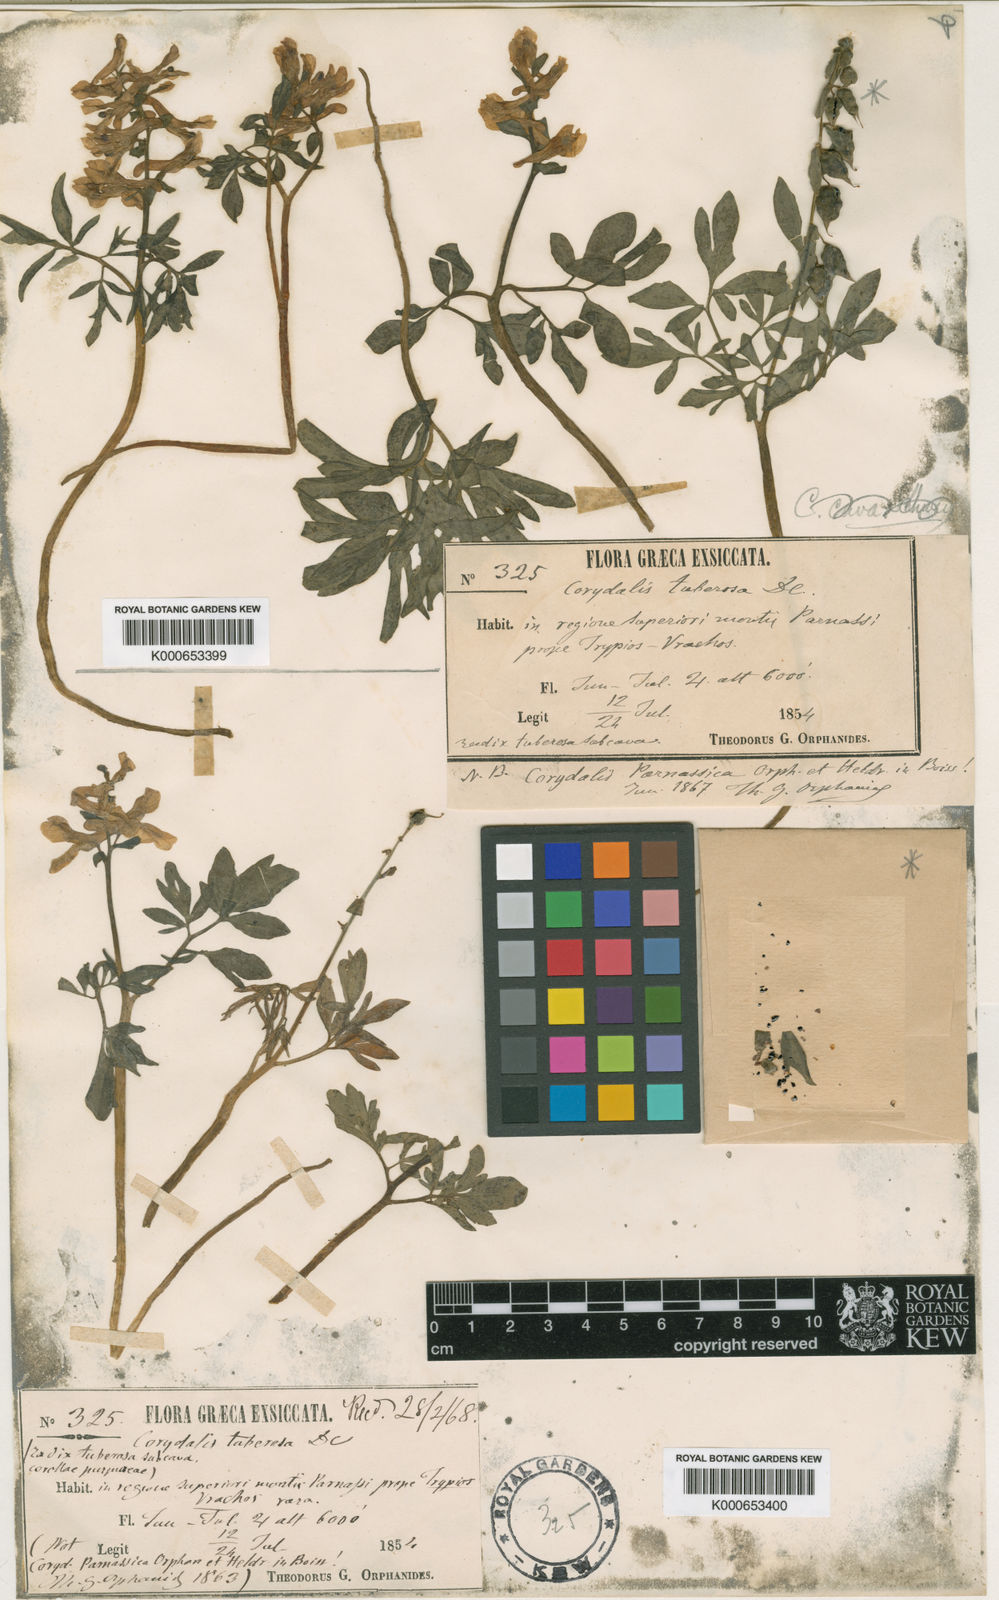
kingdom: Plantae
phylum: Tracheophyta
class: Magnoliopsida
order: Ranunculales
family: Papaveraceae
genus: Corydalis
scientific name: Corydalis blanda
